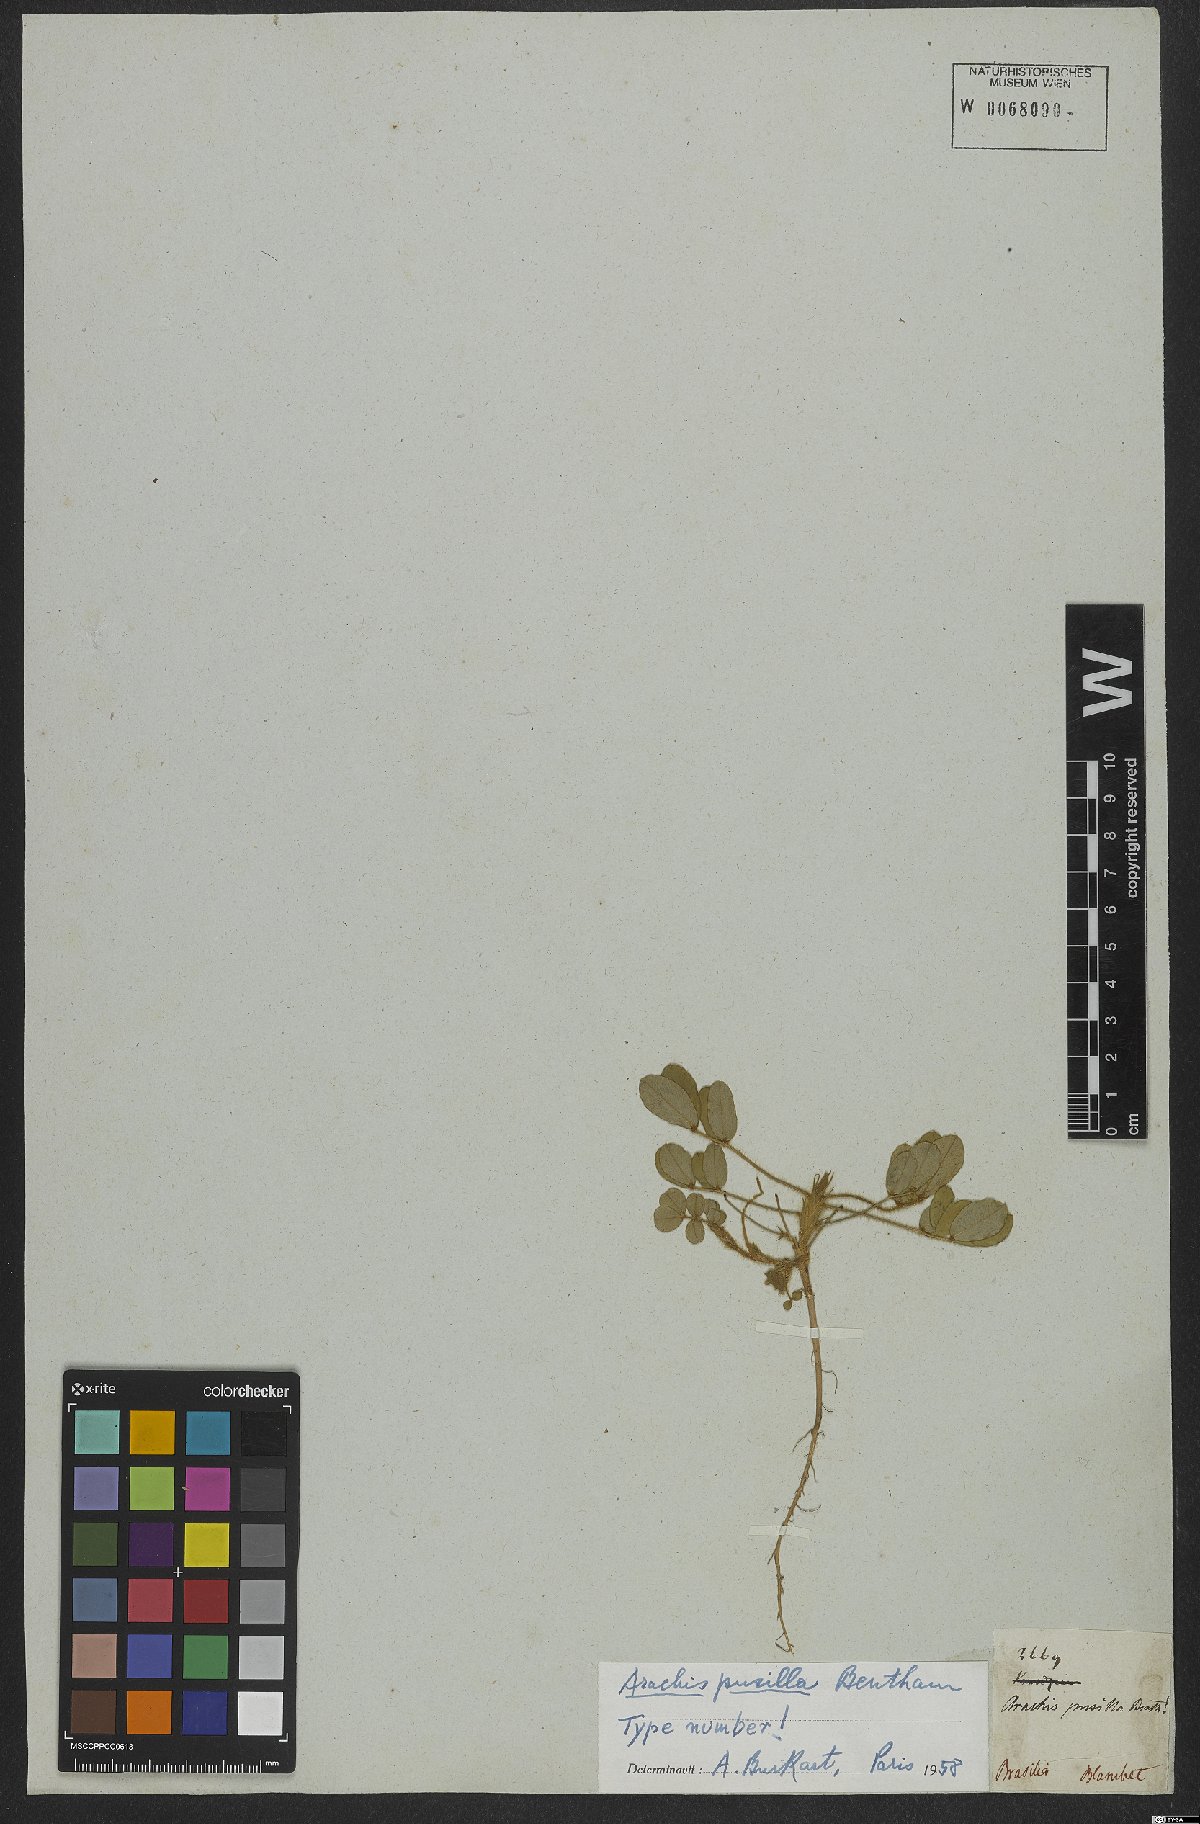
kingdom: Plantae
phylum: Tracheophyta
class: Magnoliopsida
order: Fabales
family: Fabaceae
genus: Arachis
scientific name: Arachis pusilla
